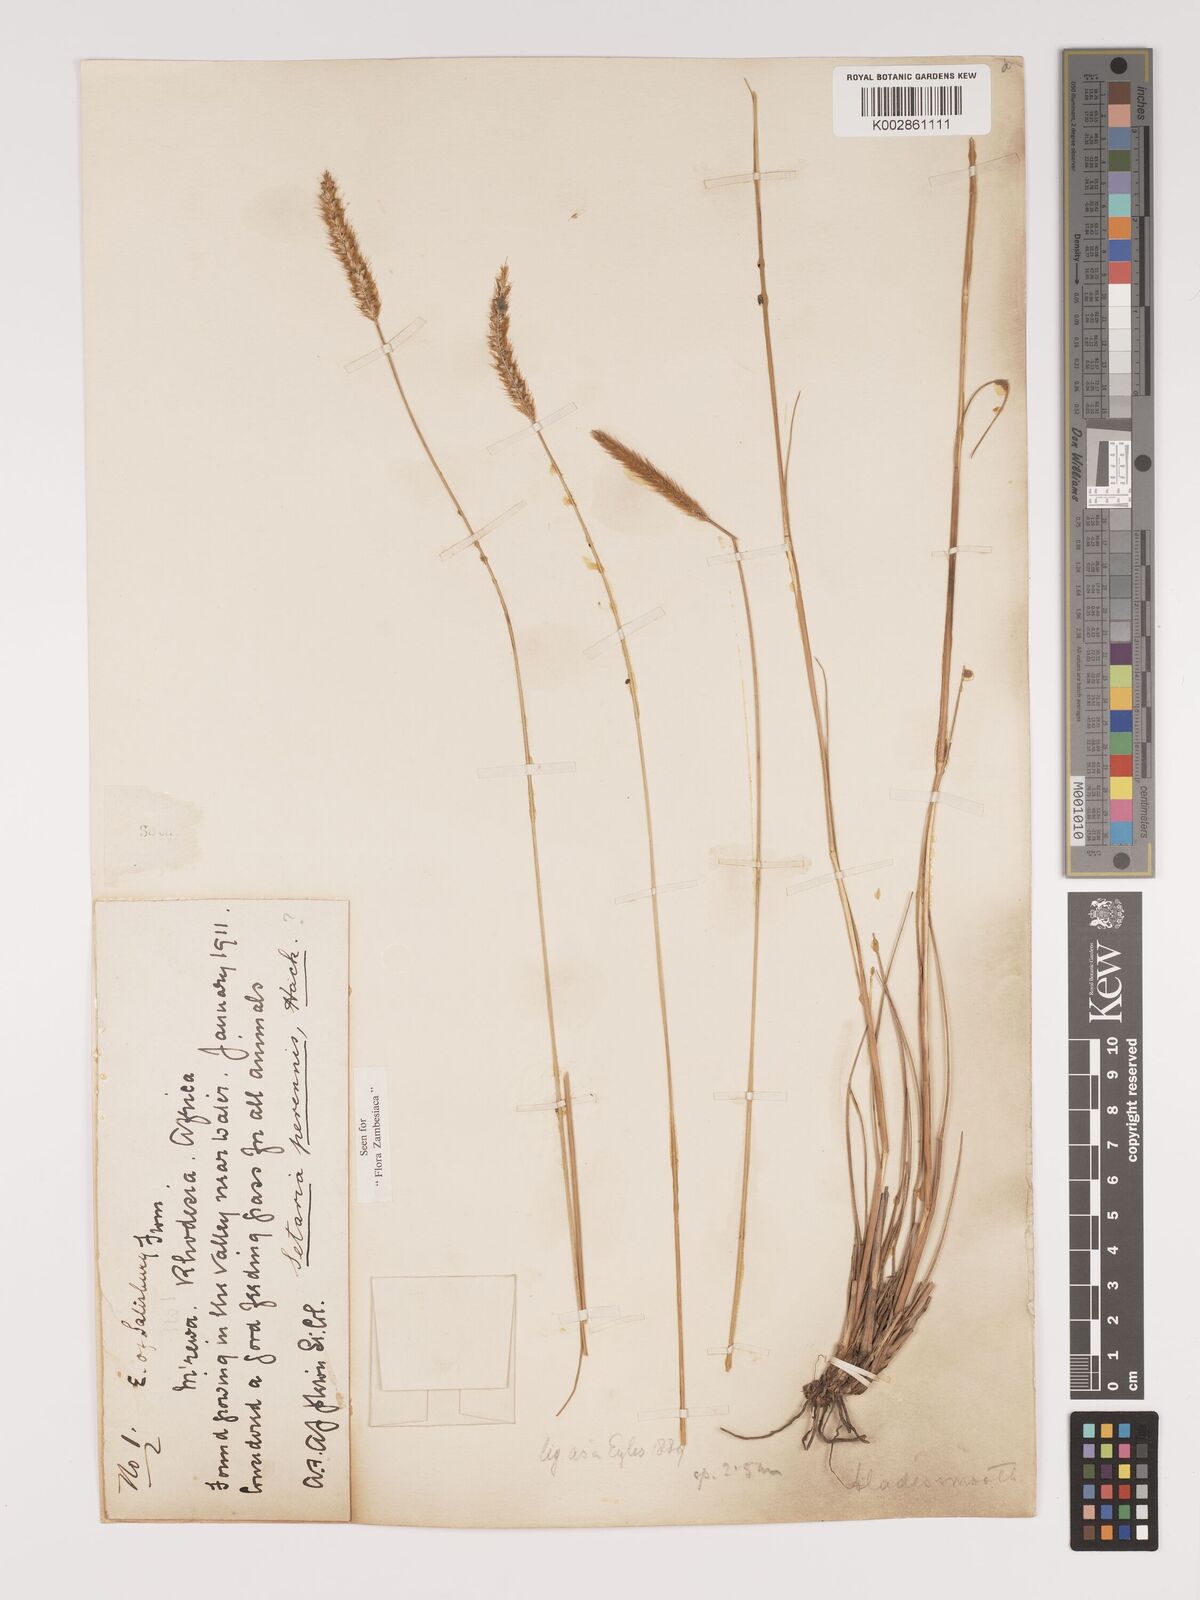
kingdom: Plantae
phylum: Tracheophyta
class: Liliopsida
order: Poales
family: Poaceae
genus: Setaria
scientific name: Setaria sphacelata
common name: African bristlegrass
